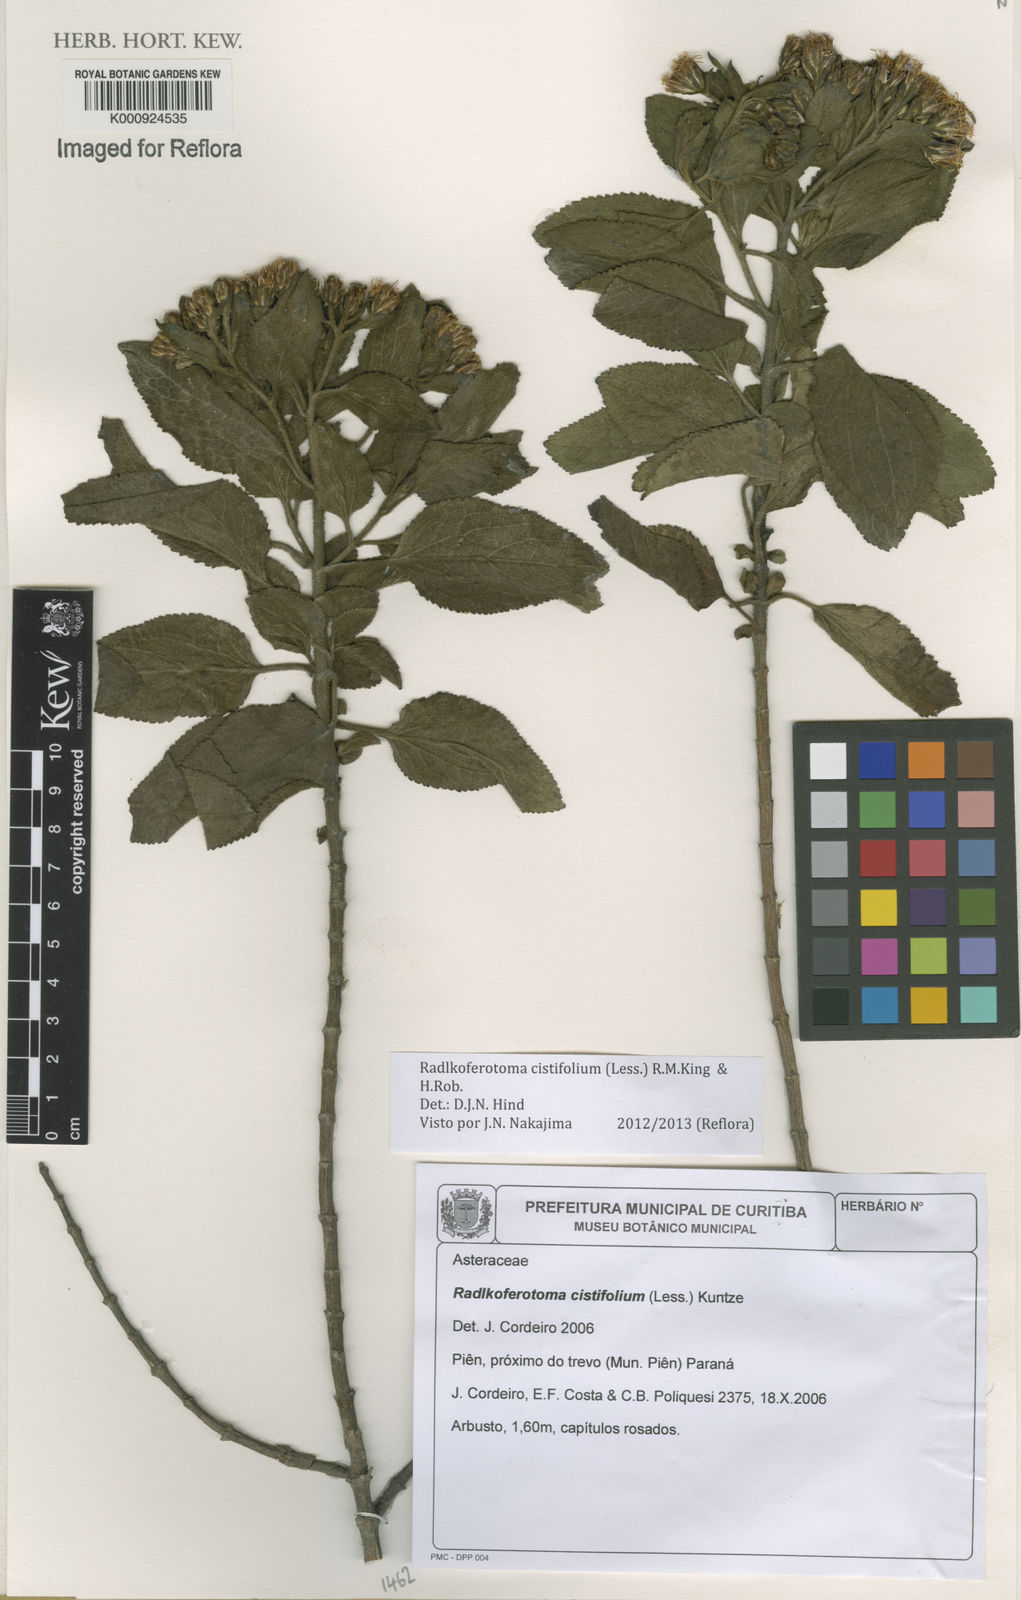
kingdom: Plantae
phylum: Tracheophyta
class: Magnoliopsida
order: Asterales
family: Asteraceae
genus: Radlkoferotoma
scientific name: Radlkoferotoma cistifolium
